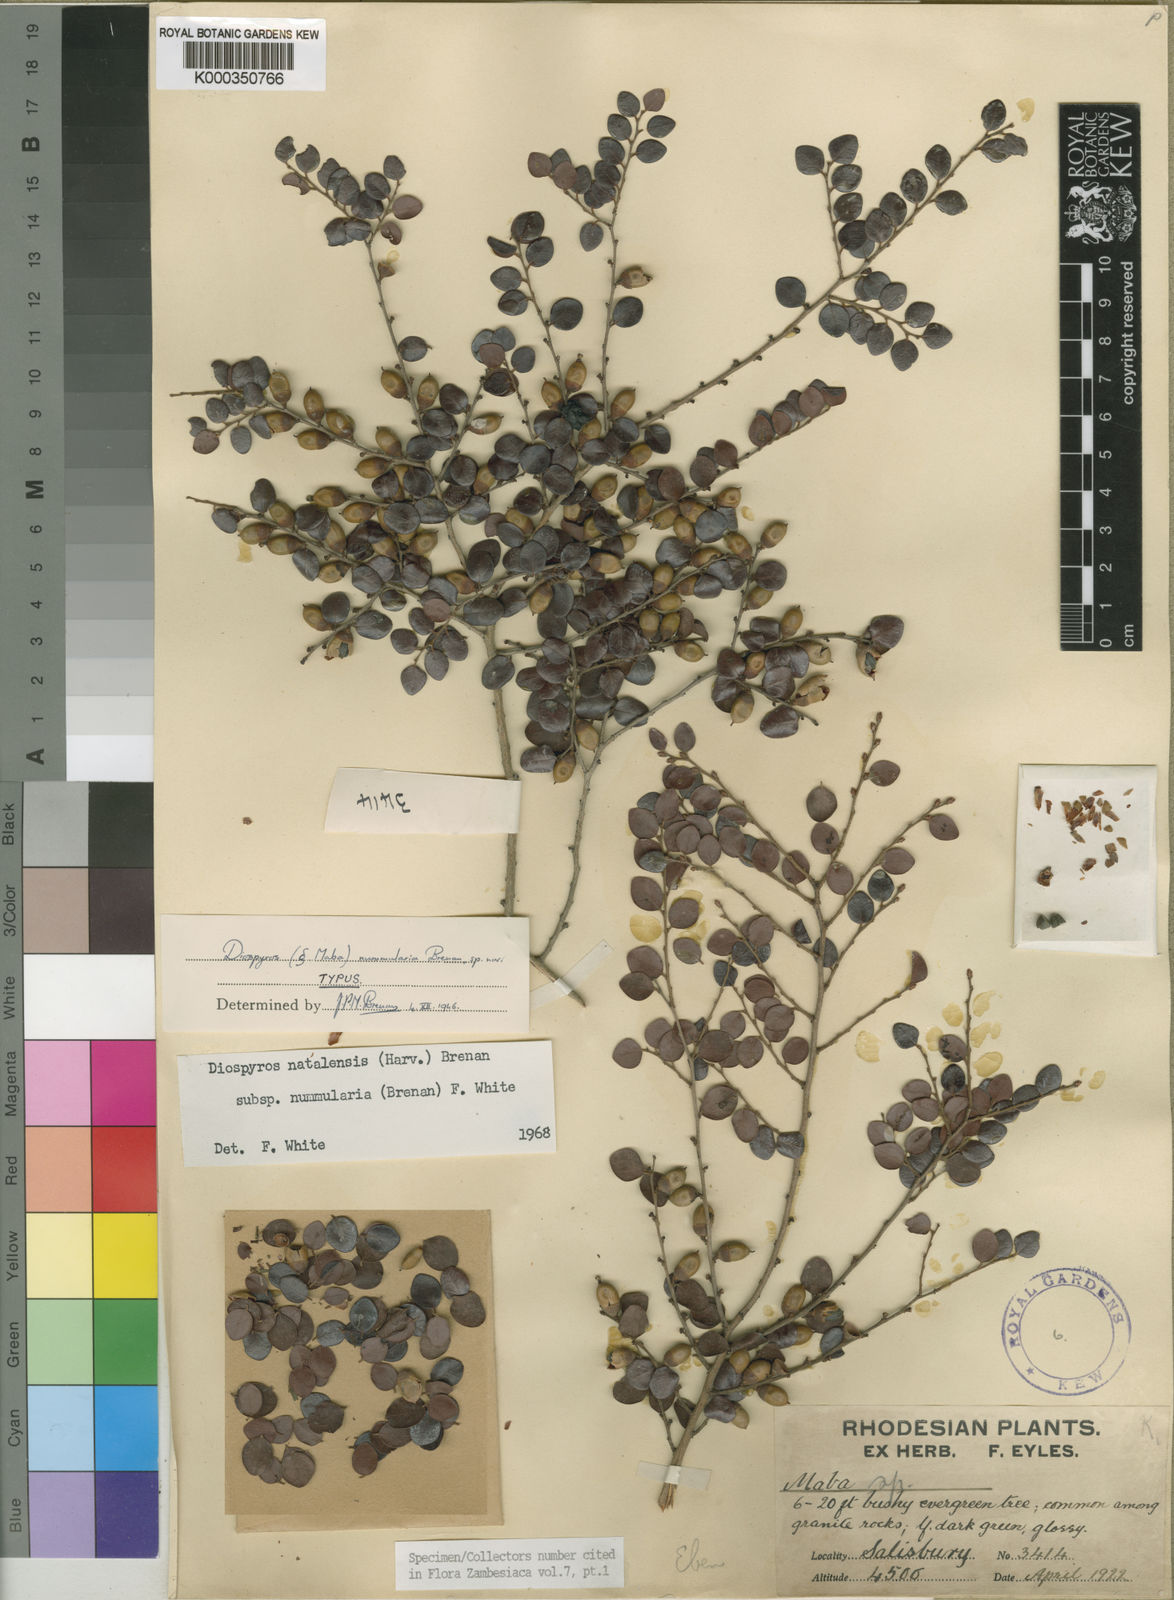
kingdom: Plantae
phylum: Tracheophyta
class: Magnoliopsida
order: Ericales
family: Ebenaceae
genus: Diospyros
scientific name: Diospyros natalensis
